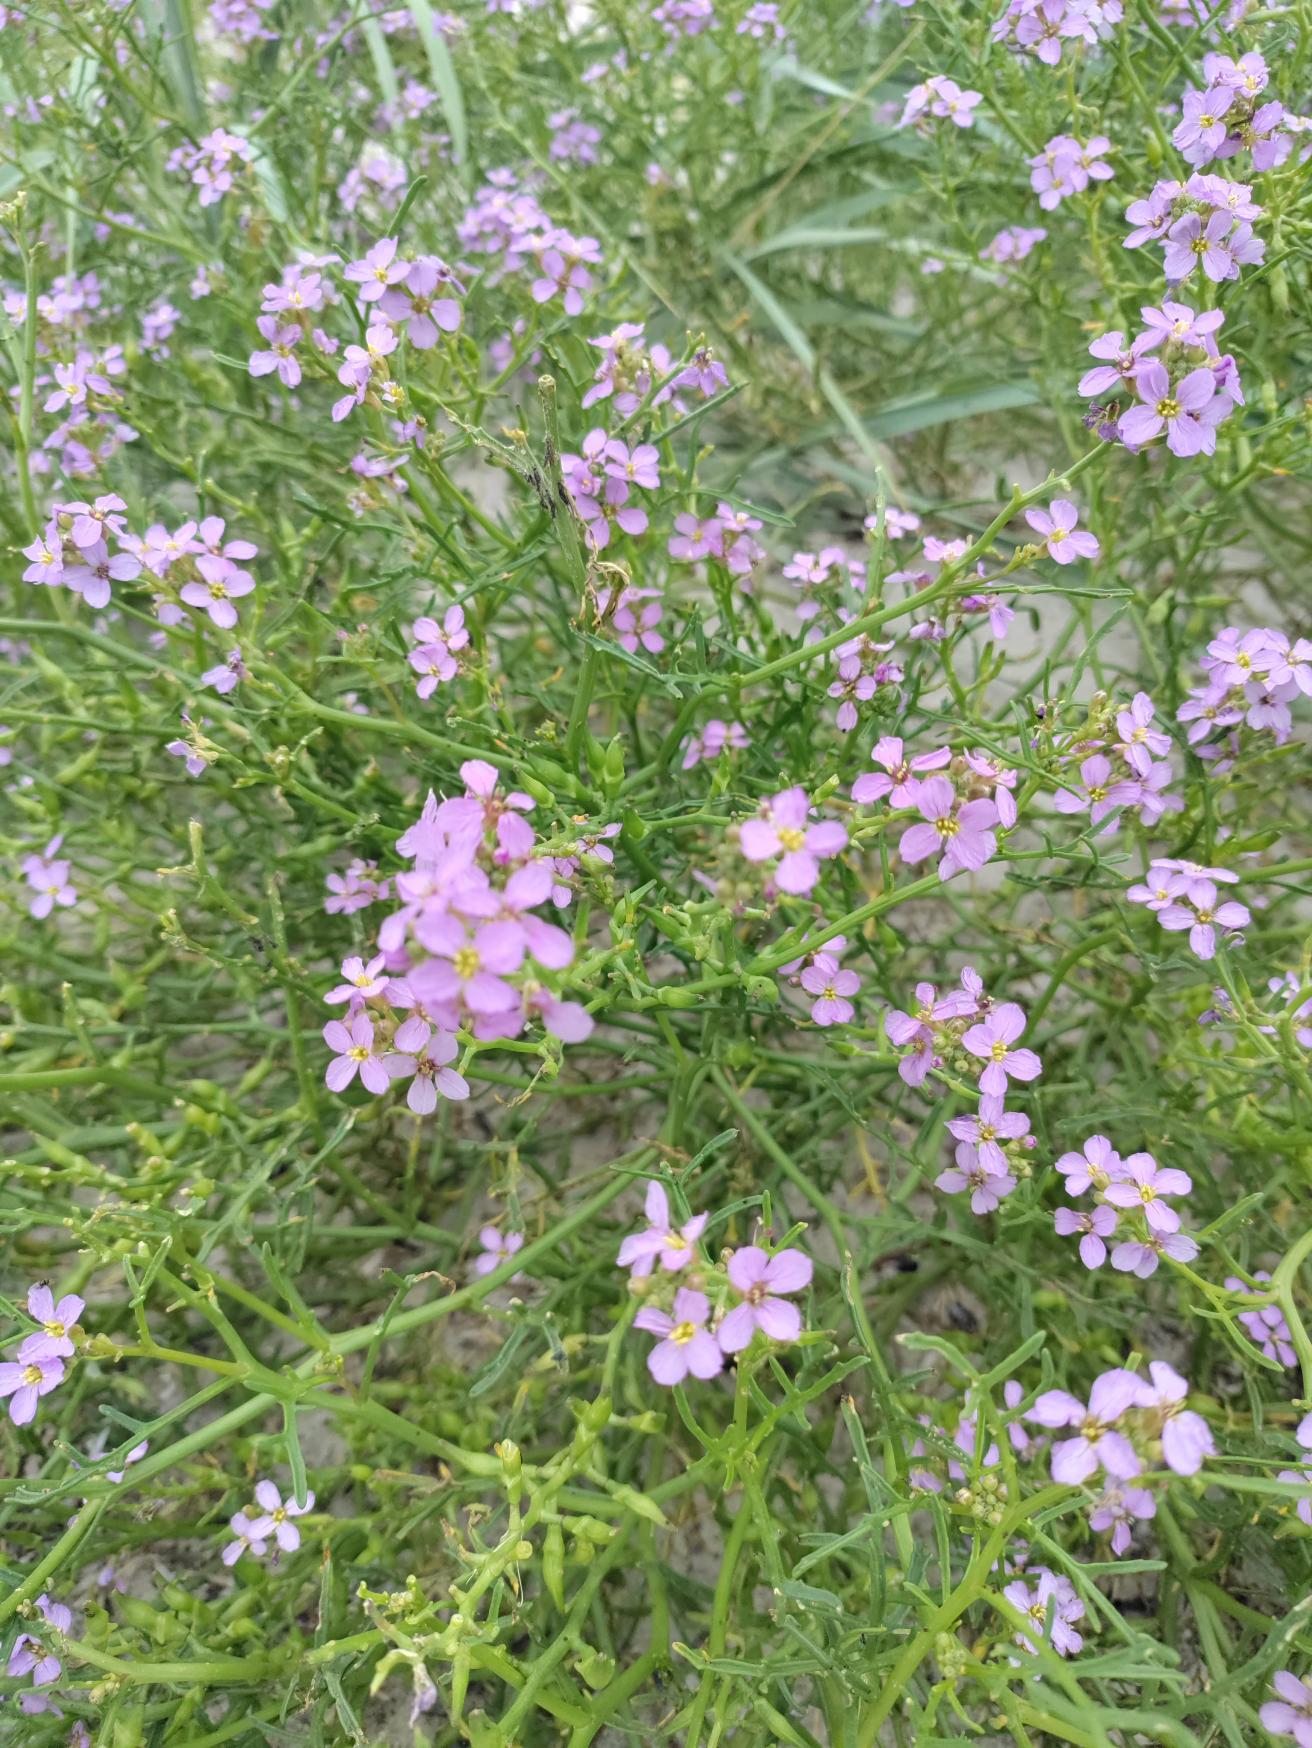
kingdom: Plantae
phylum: Tracheophyta
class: Magnoliopsida
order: Brassicales
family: Brassicaceae
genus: Cakile
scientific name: Cakile maritima
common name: Strandsennep
